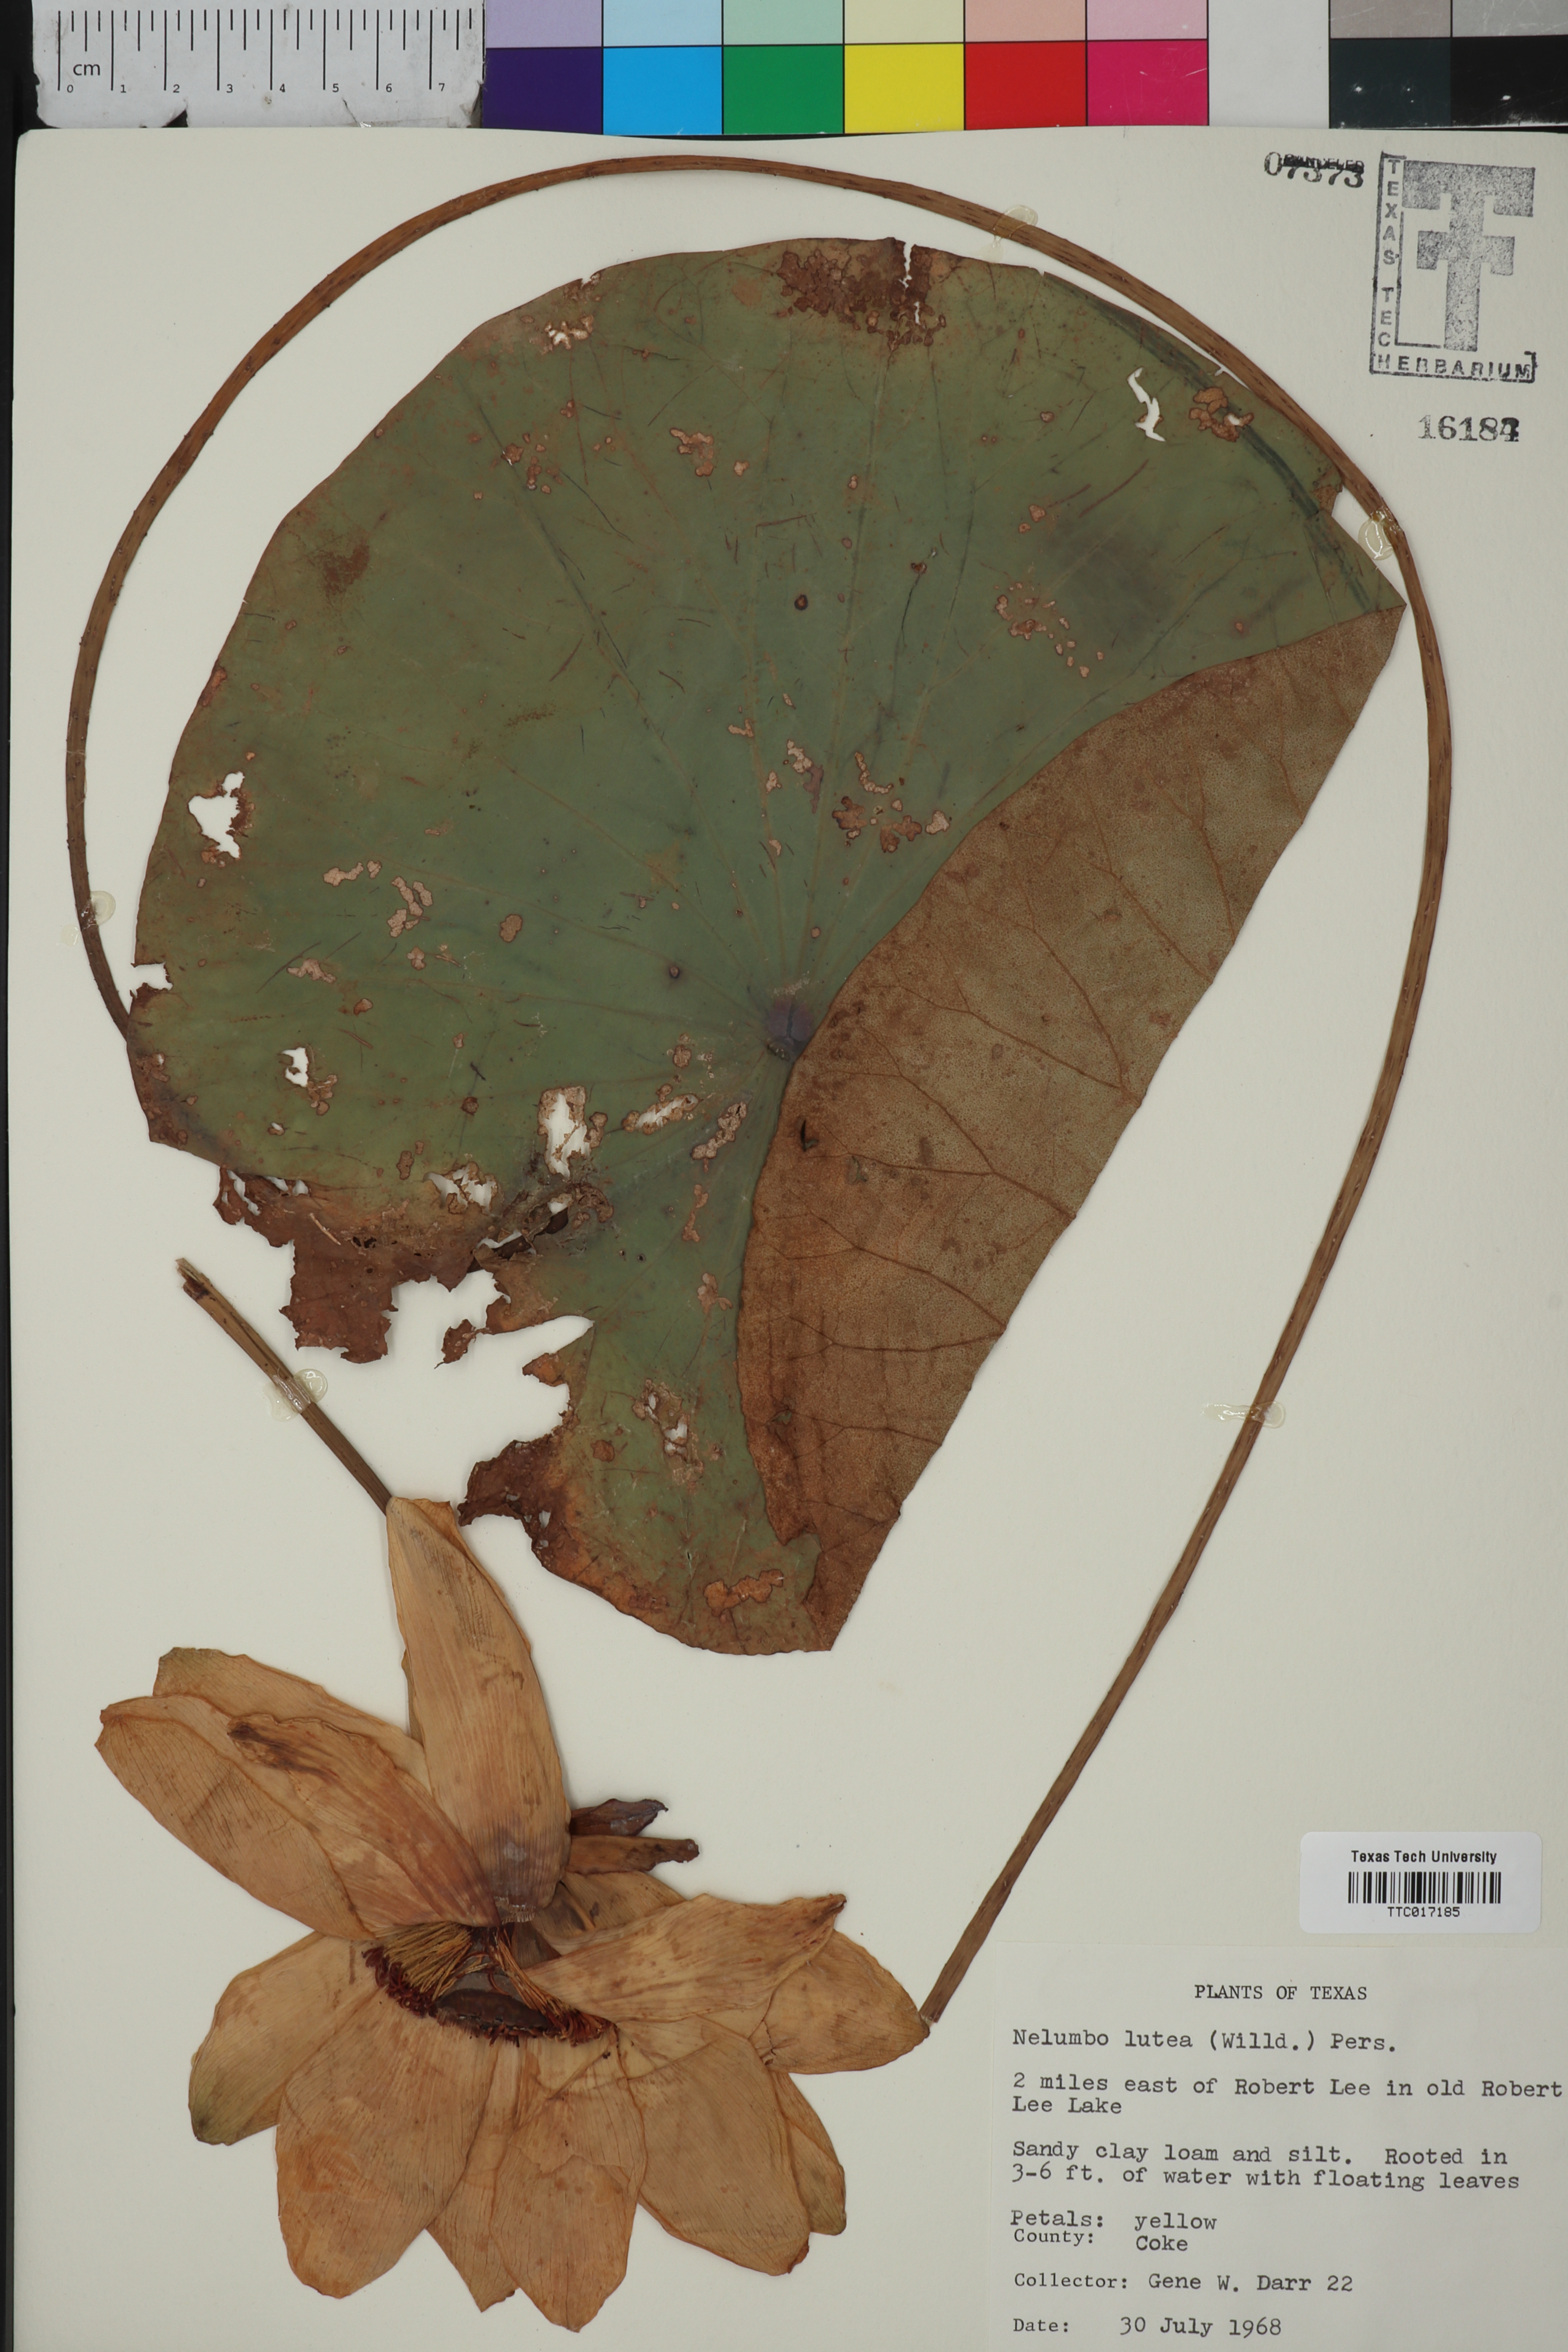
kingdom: Plantae
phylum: Tracheophyta
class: Magnoliopsida
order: Proteales
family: Nelumbonaceae
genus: Nelumbo
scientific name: Nelumbo lutea
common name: American lotus
